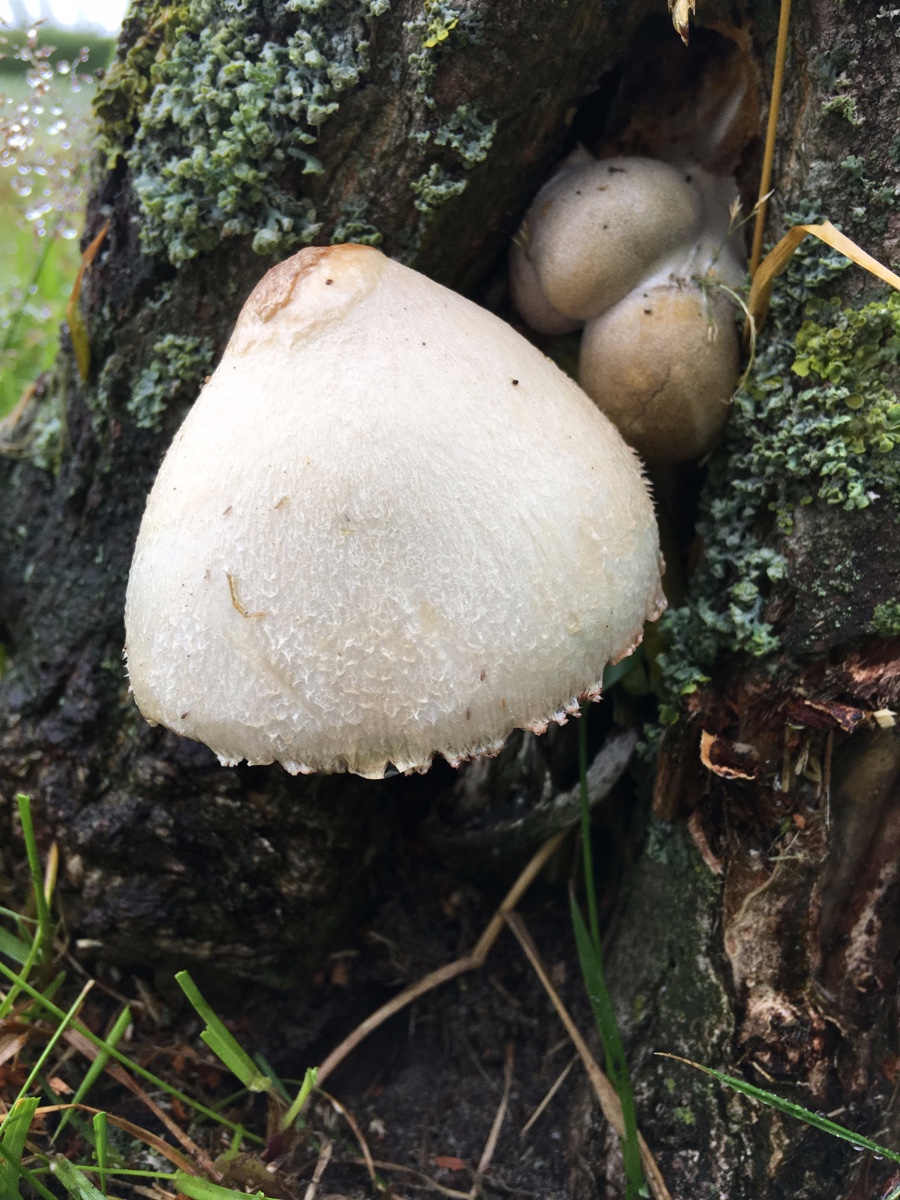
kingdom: Fungi
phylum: Basidiomycota
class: Agaricomycetes
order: Agaricales
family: Pluteaceae
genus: Volvariella
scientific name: Volvariella bombycina
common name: silkehåret posesvamp
